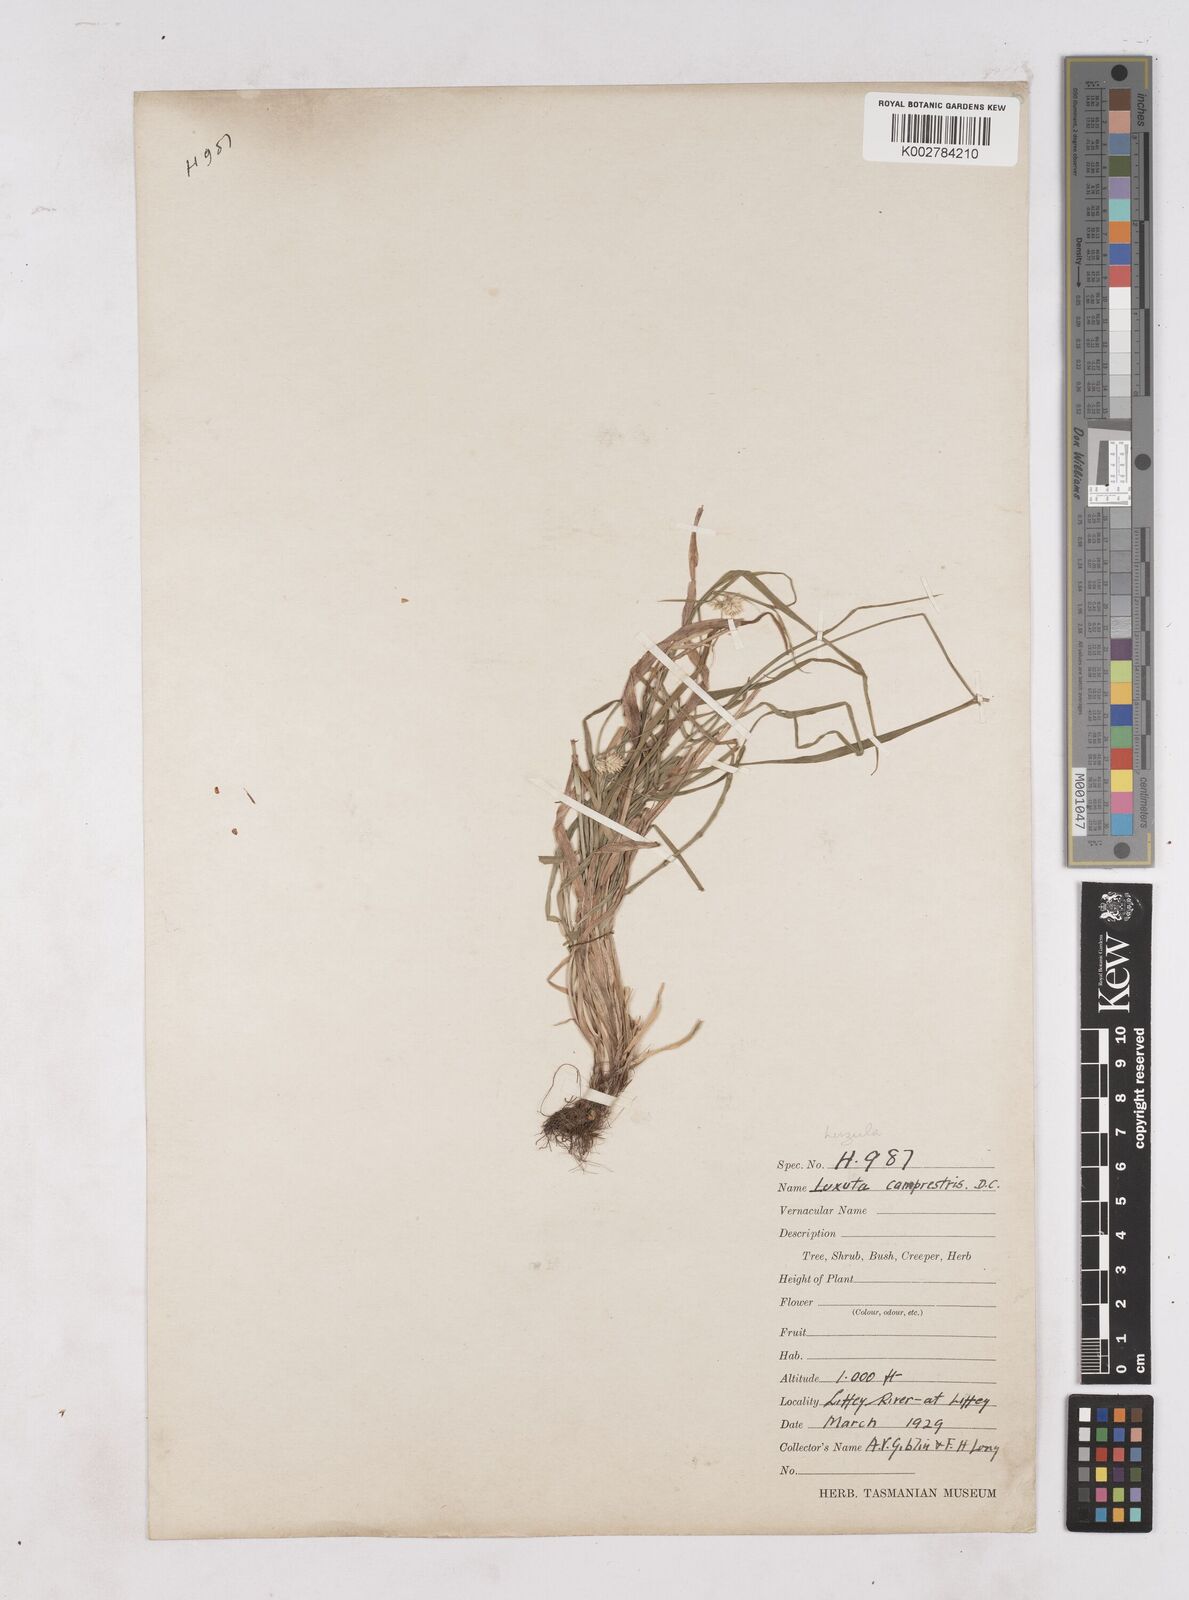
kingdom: Plantae
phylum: Tracheophyta
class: Liliopsida
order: Poales
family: Juncaceae
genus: Luzula
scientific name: Luzula campestris
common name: Field wood-rush
